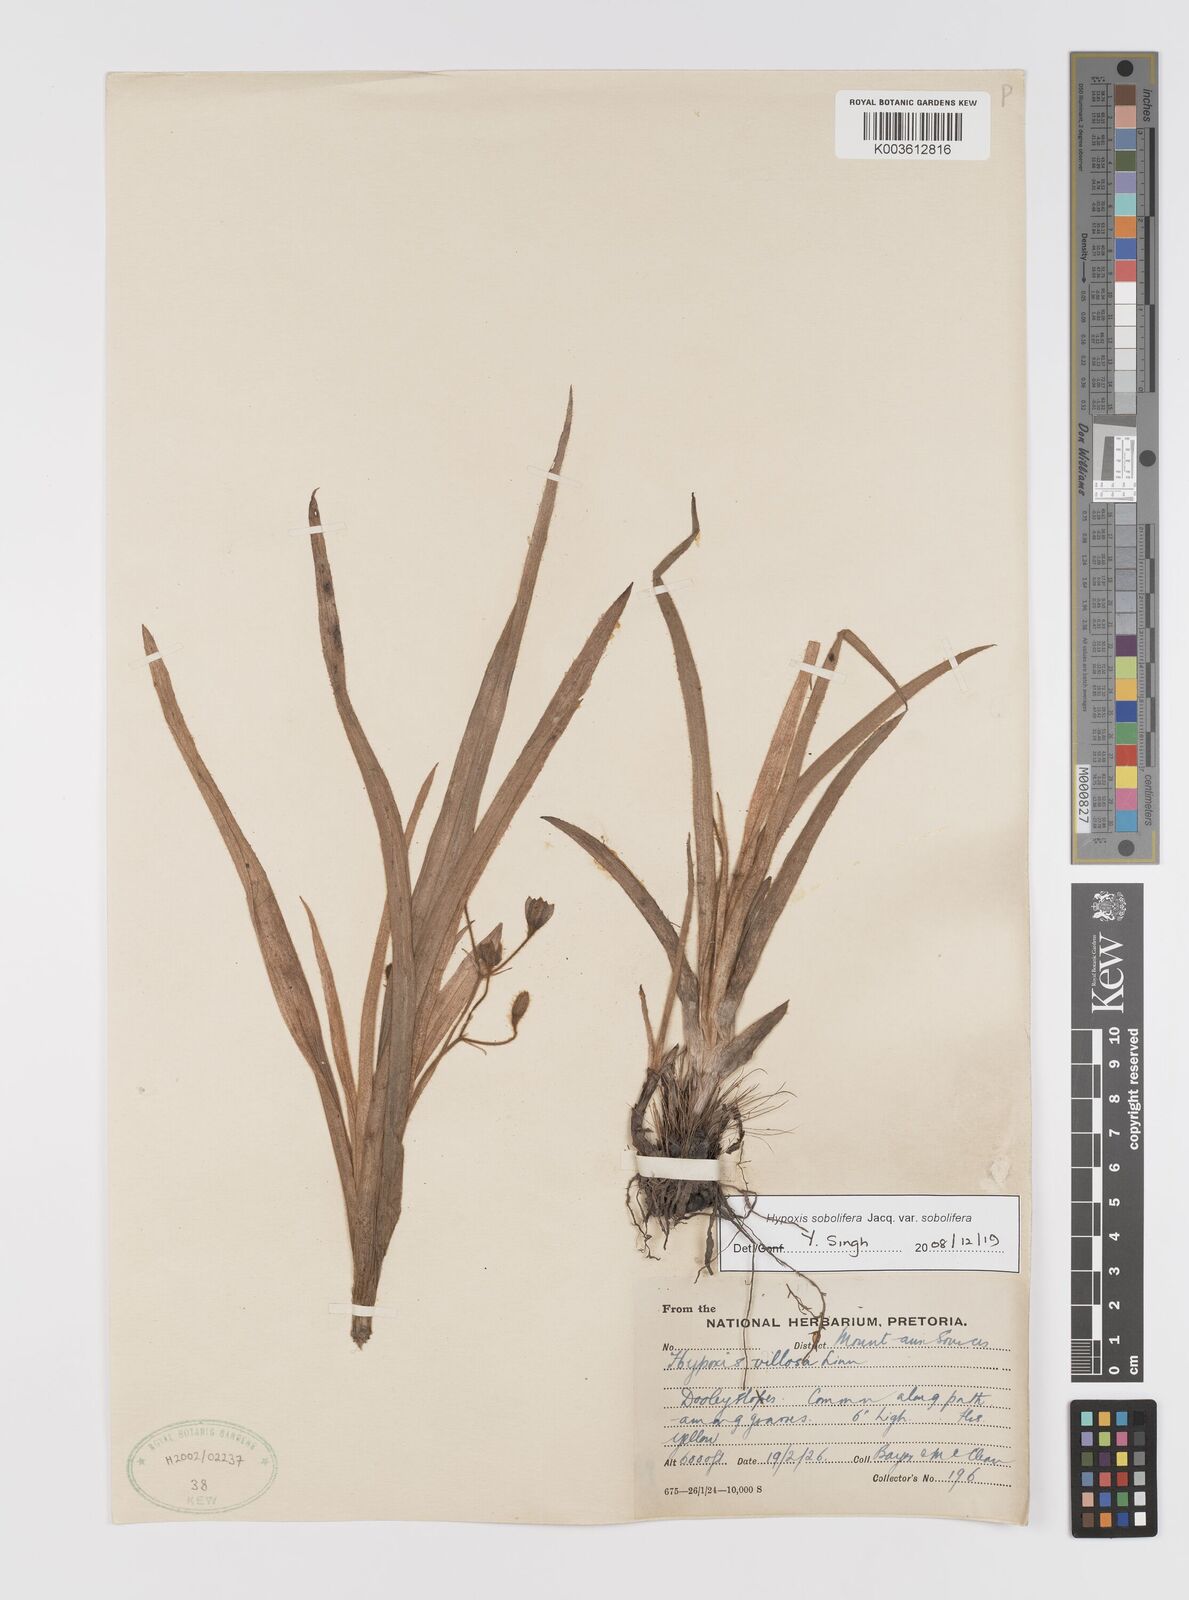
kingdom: Plantae
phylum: Tracheophyta
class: Liliopsida
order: Asparagales
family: Hypoxidaceae
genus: Hypoxis
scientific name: Hypoxis sobolifera
